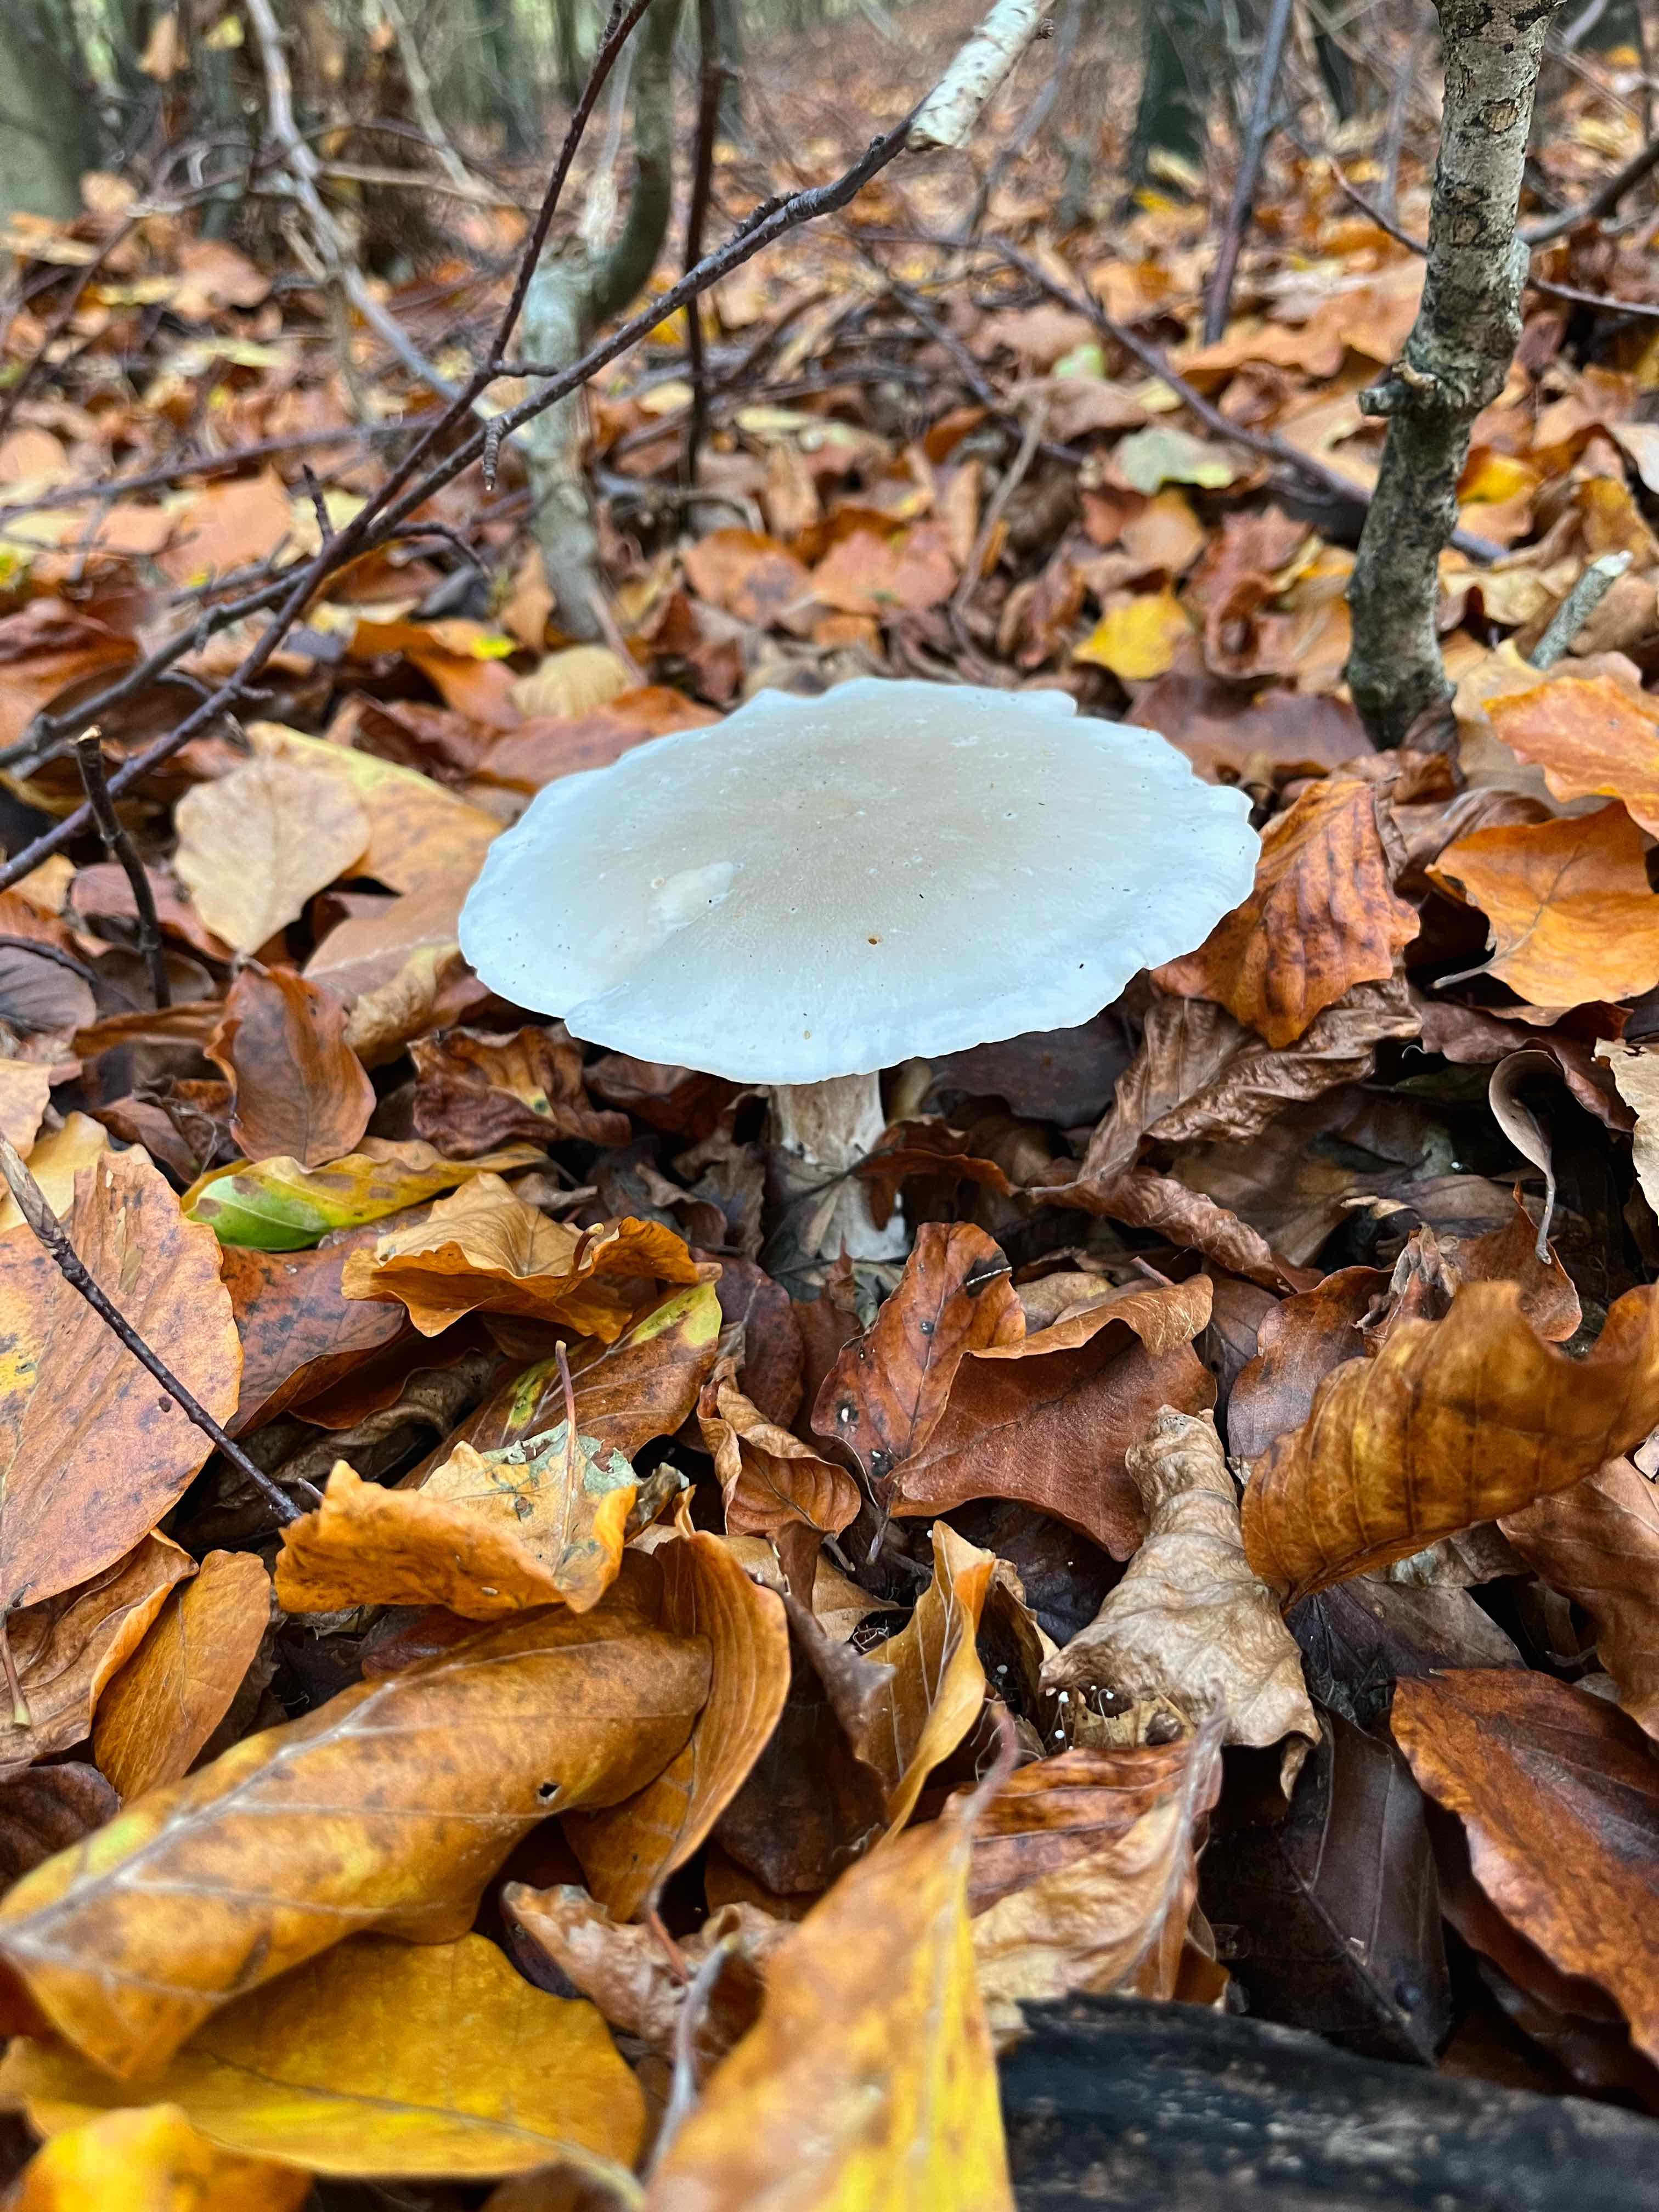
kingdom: Fungi
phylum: Basidiomycota
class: Agaricomycetes
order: Agaricales
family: Tricholomataceae
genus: Clitocybe
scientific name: Clitocybe nebularis
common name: tåge-tragthat
